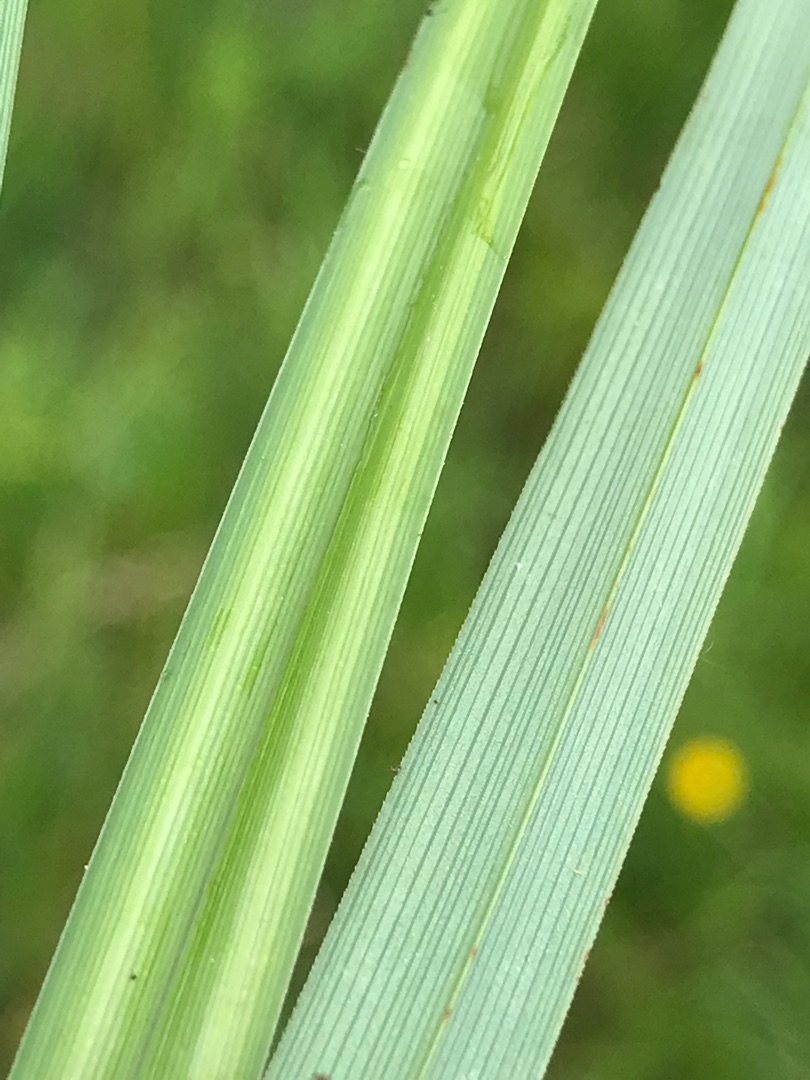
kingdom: Plantae
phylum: Tracheophyta
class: Liliopsida
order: Poales
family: Cyperaceae
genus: Carex
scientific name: Carex acutiformis
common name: Kær-star
